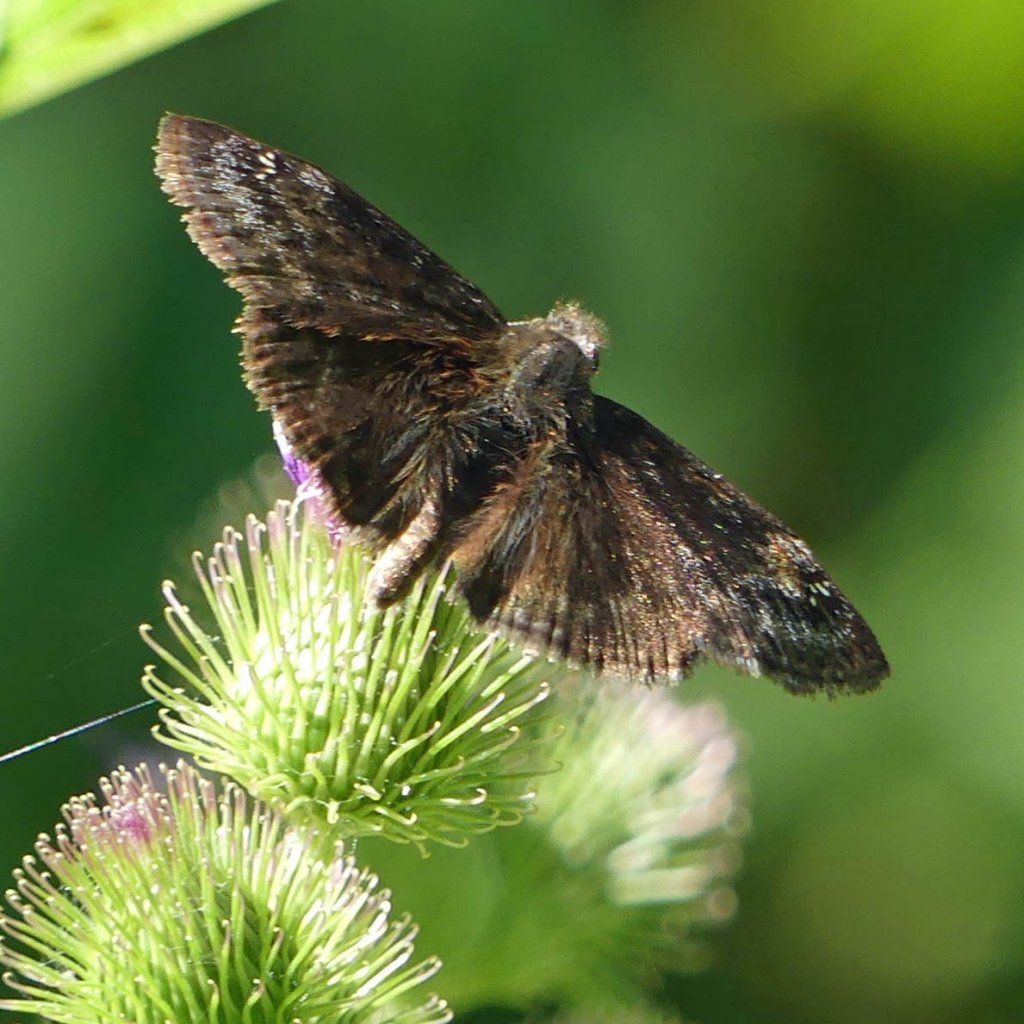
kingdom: Animalia
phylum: Arthropoda
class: Insecta
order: Lepidoptera
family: Hesperiidae
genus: Gesta
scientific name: Gesta
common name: Wild Indigo Duskywing
